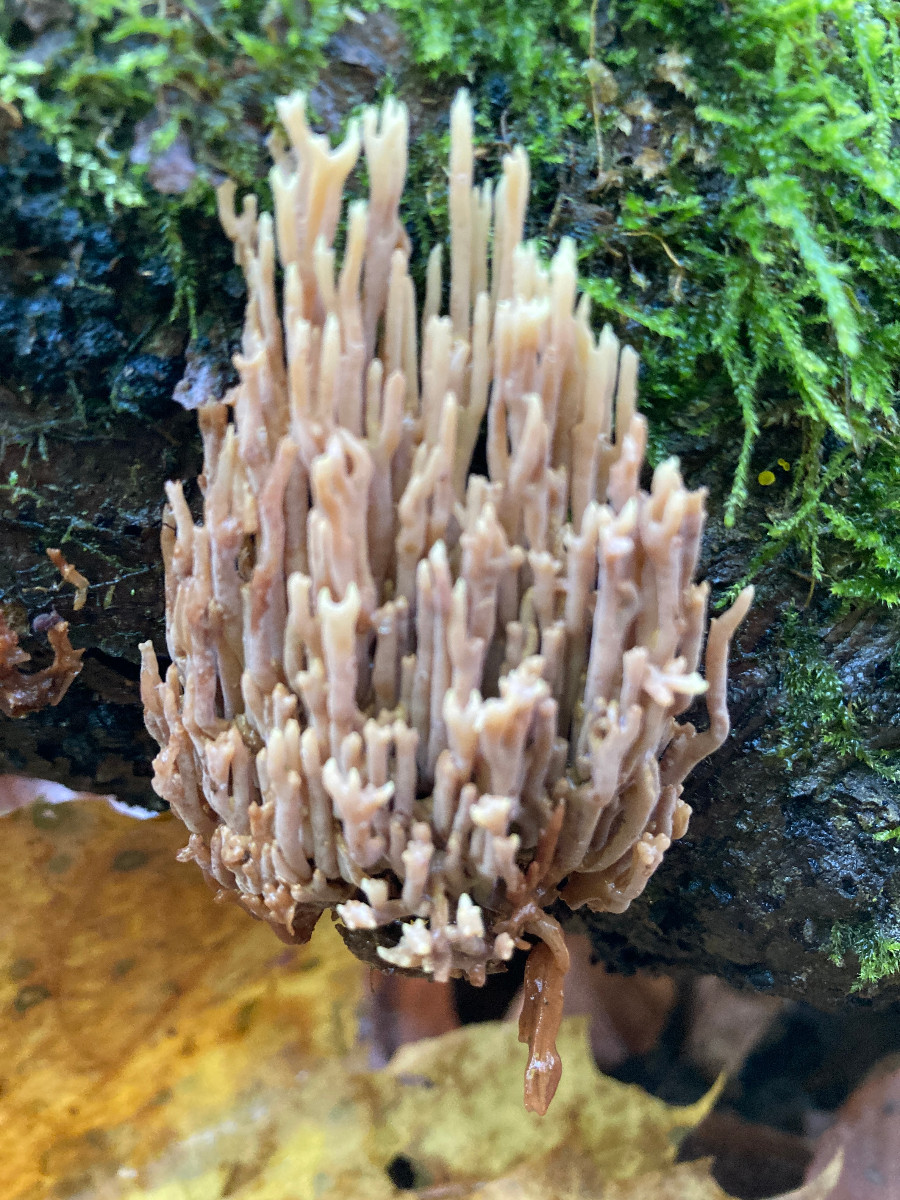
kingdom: Fungi
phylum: Basidiomycota
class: Agaricomycetes
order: Gomphales
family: Gomphaceae
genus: Ramaria
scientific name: Ramaria stricta
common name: rank koralsvamp
